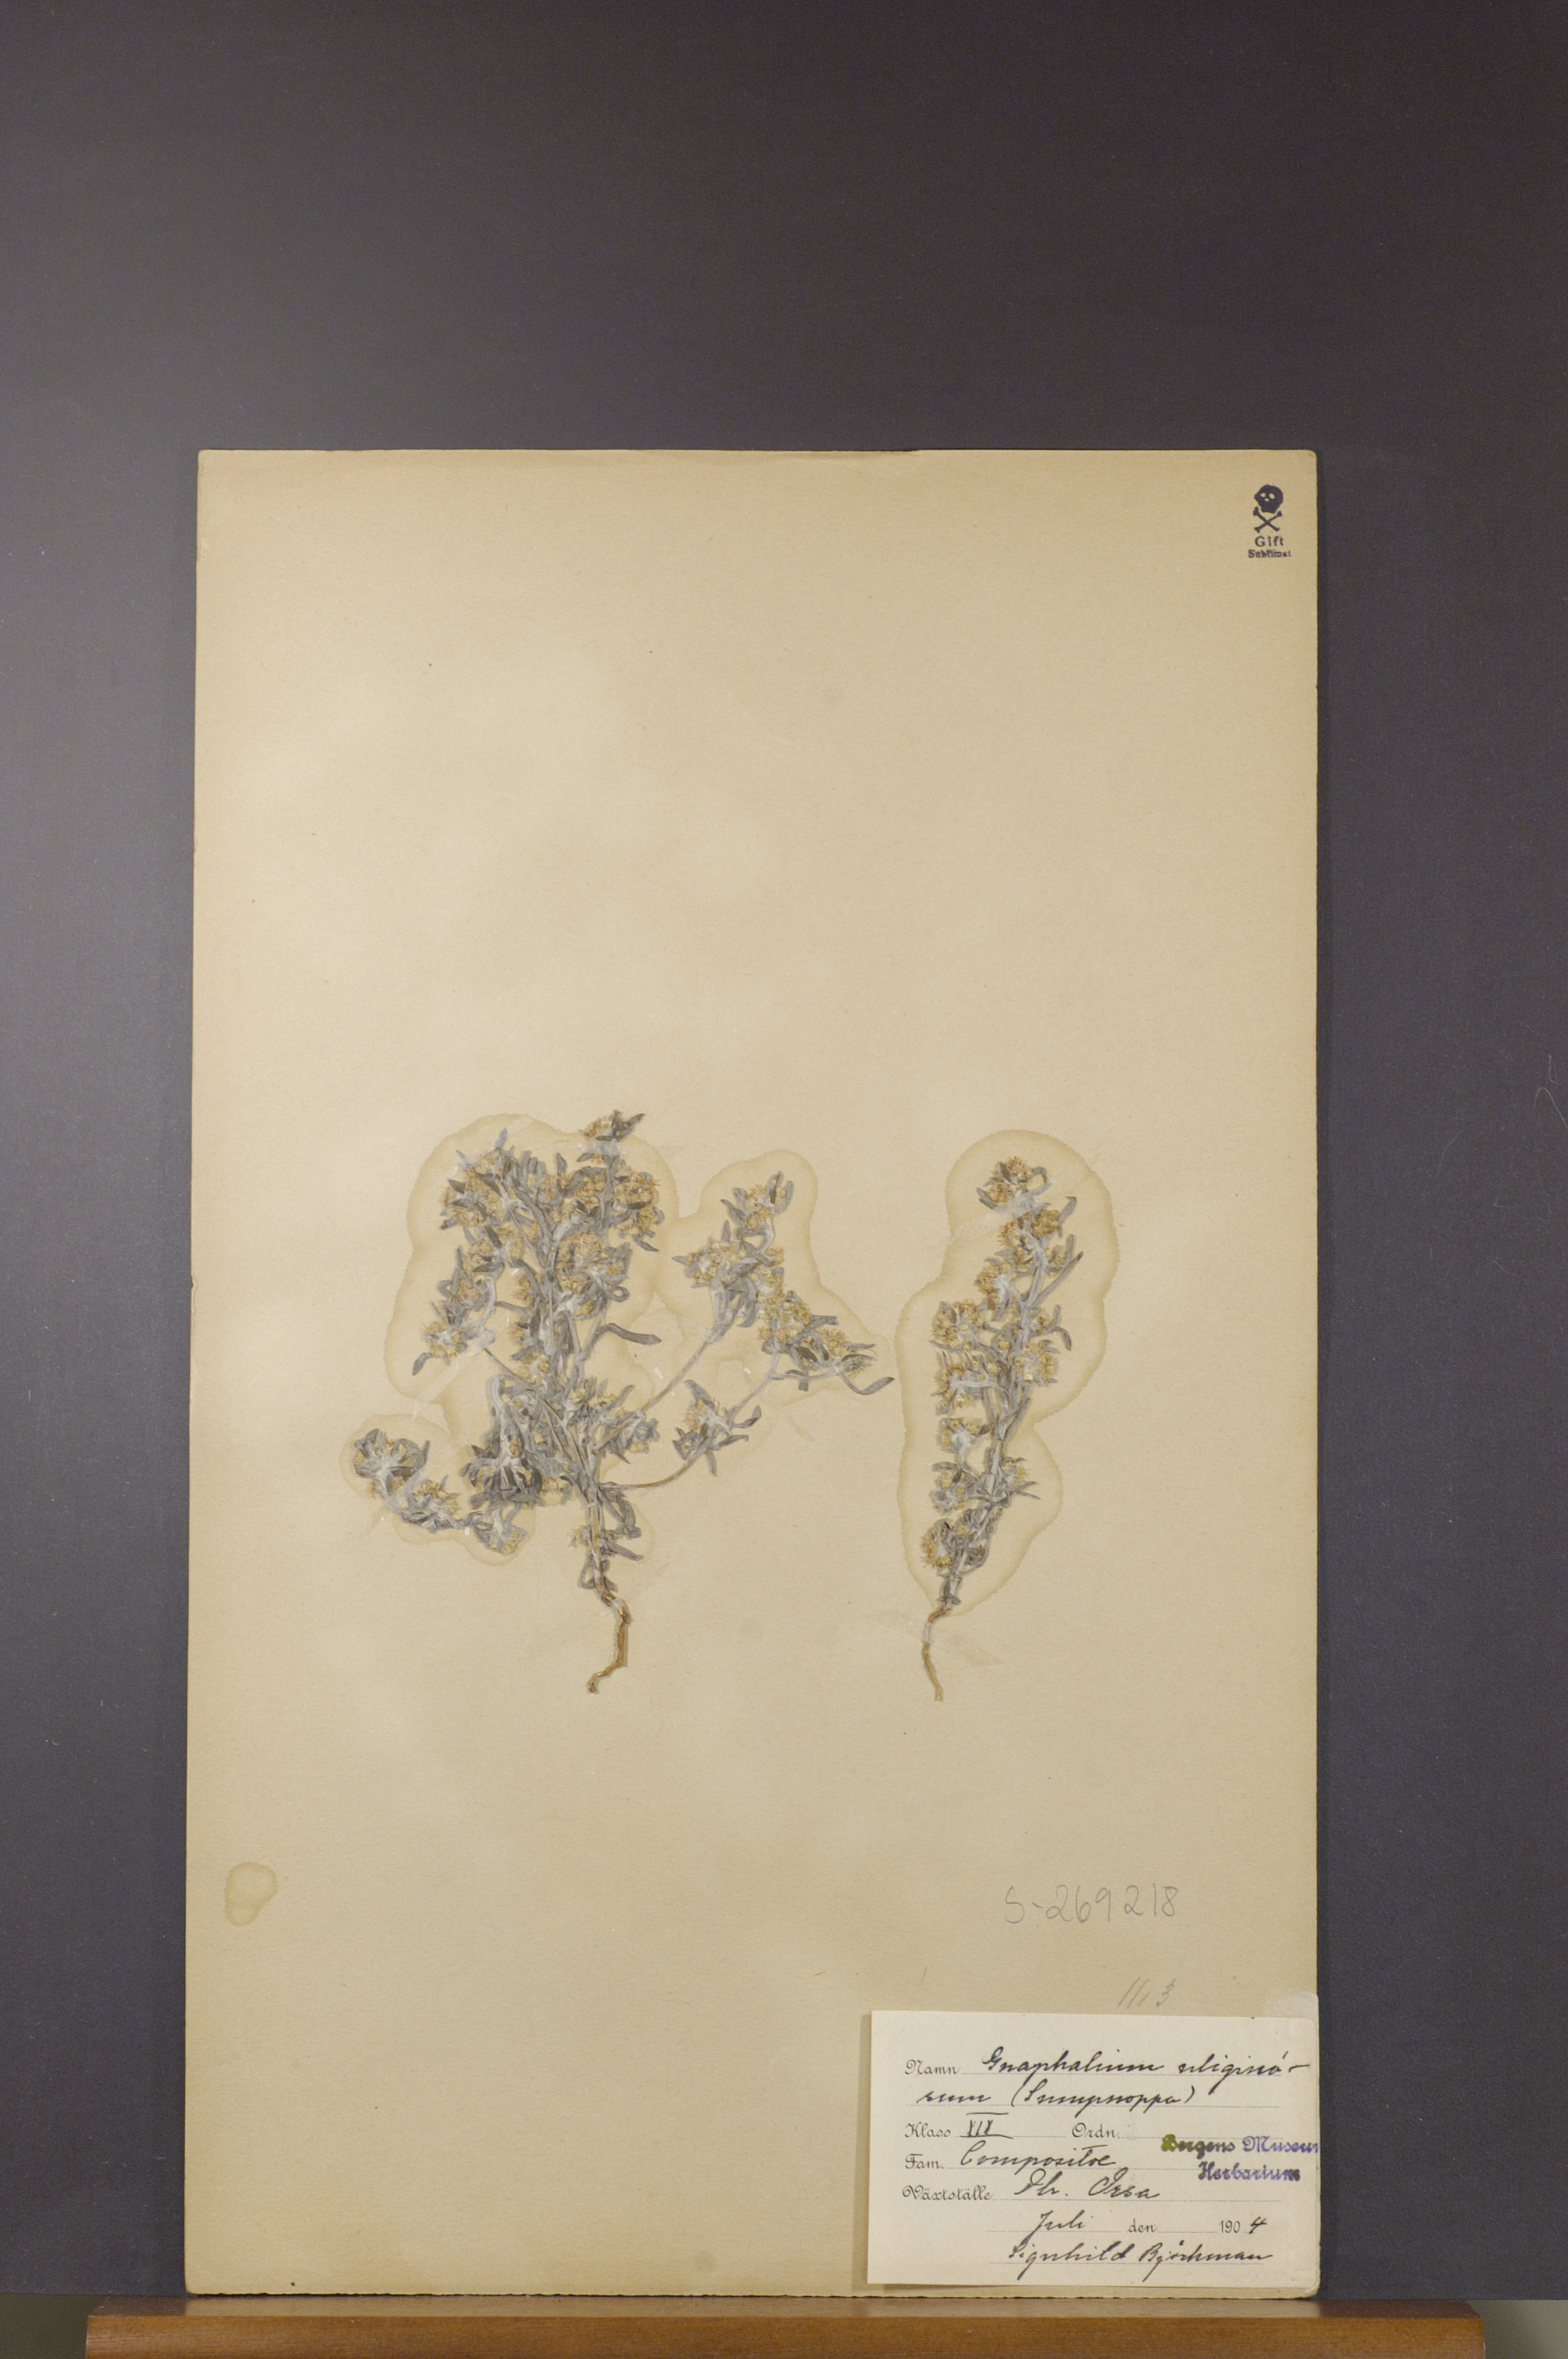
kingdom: Plantae
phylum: Tracheophyta
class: Magnoliopsida
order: Asterales
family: Asteraceae
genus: Gnaphalium
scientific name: Gnaphalium uliginosum
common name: Marsh cudweed
